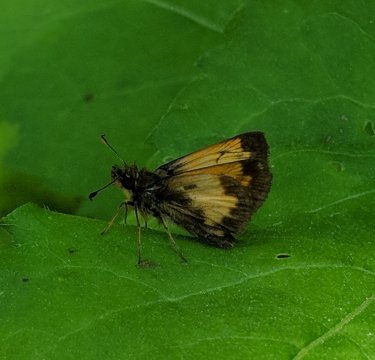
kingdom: Animalia
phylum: Arthropoda
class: Insecta
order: Lepidoptera
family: Hesperiidae
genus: Lon
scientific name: Lon hobomok
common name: Hobomok Skipper
